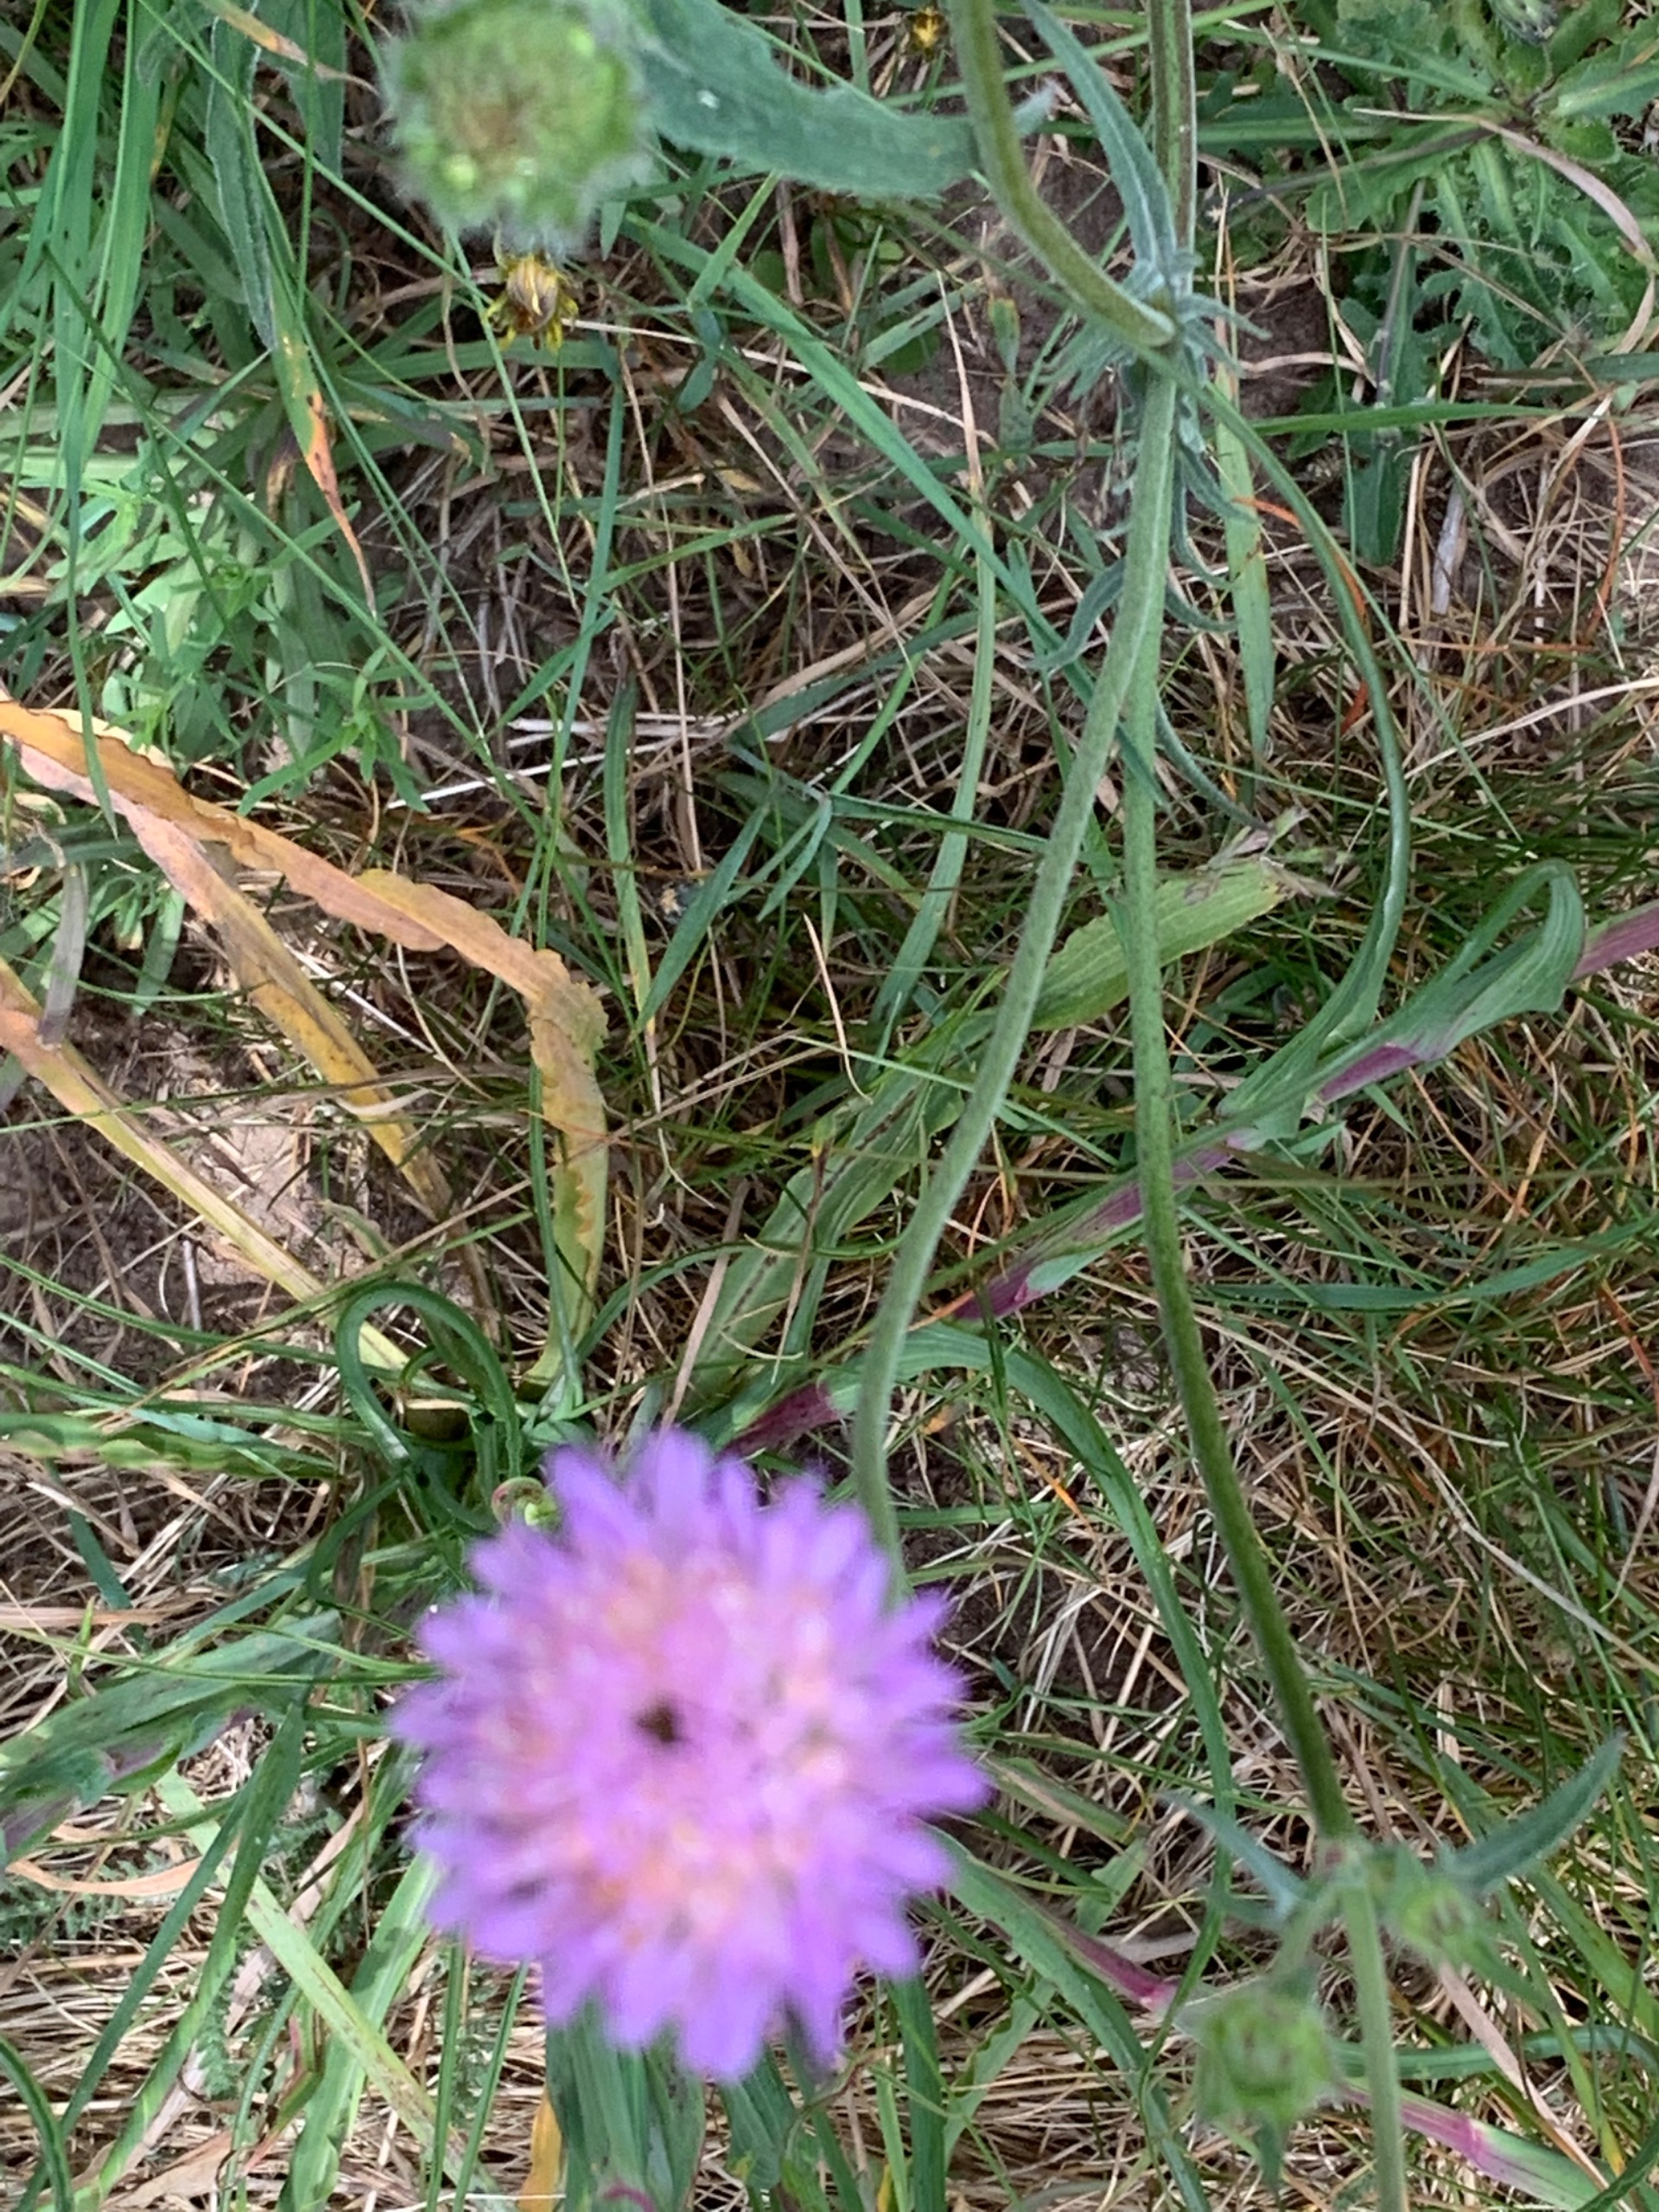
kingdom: Plantae
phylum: Tracheophyta
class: Magnoliopsida
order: Dipsacales
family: Caprifoliaceae
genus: Knautia
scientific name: Knautia arvensis
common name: Blåhat
